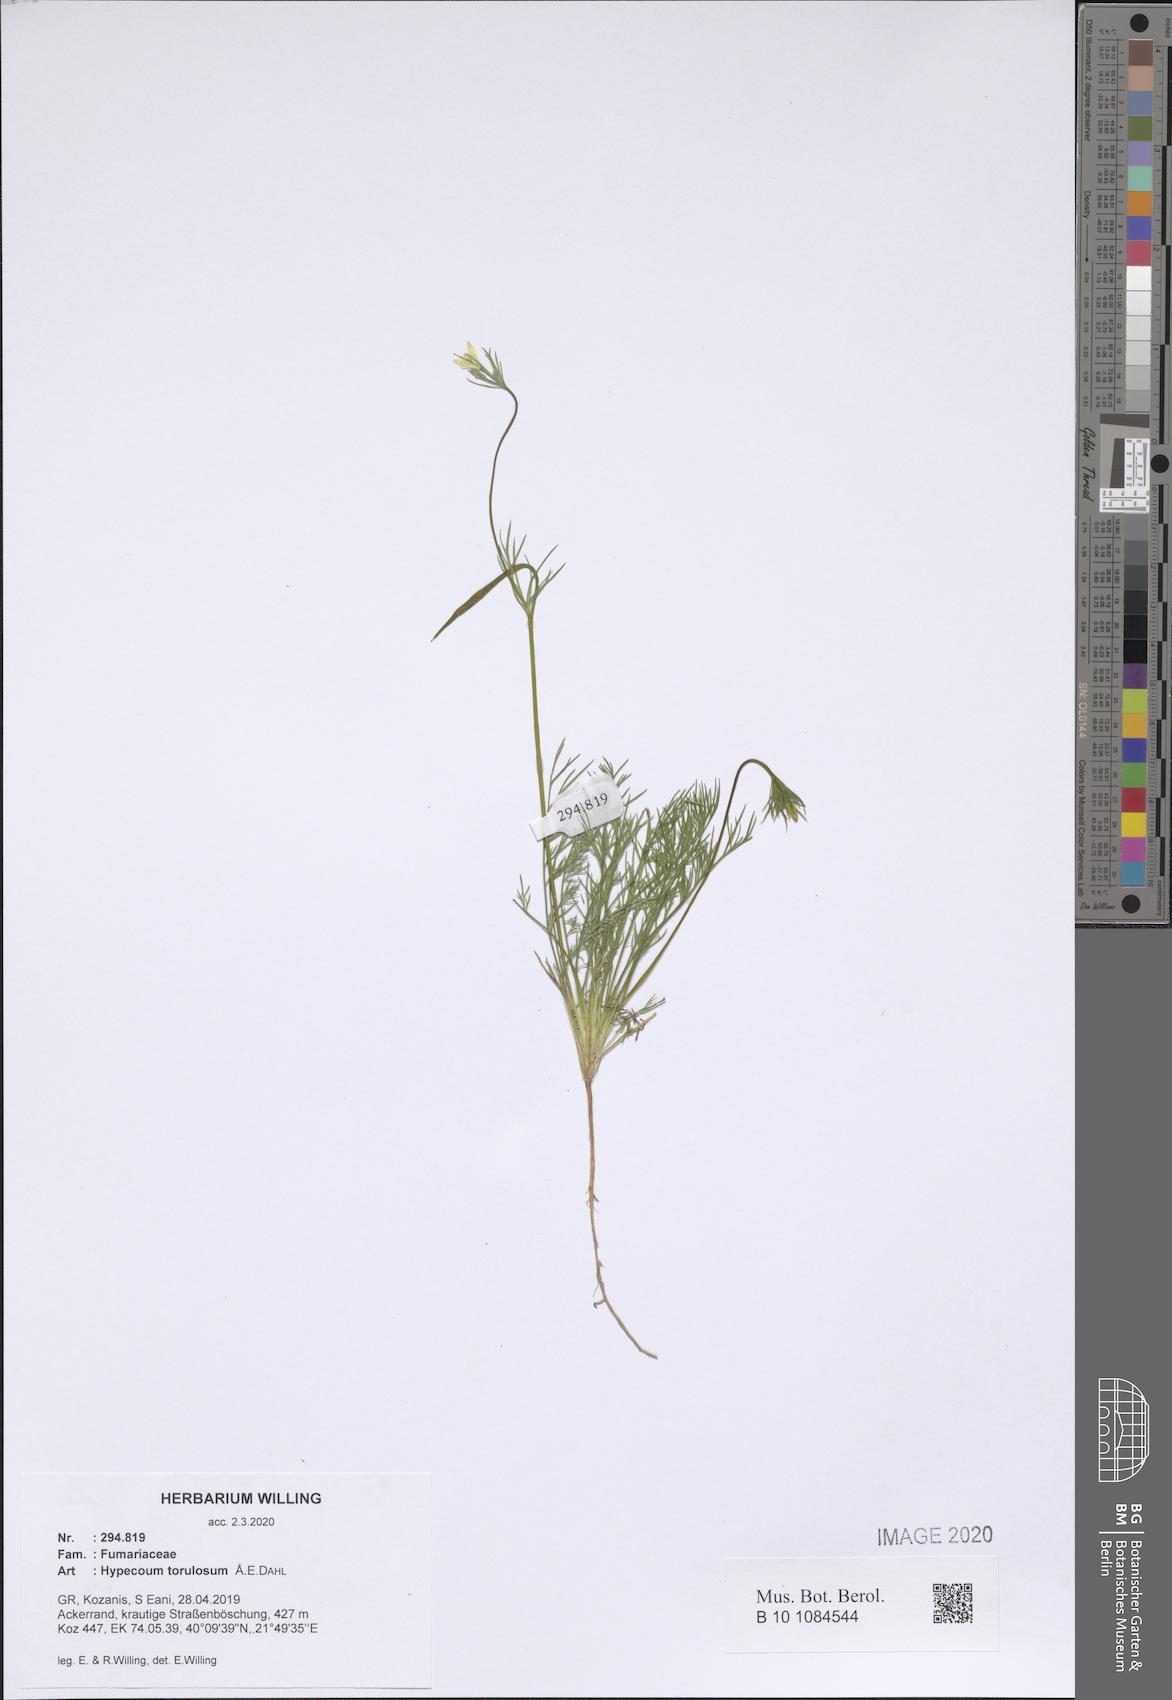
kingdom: Plantae
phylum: Tracheophyta
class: Magnoliopsida
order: Ranunculales
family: Papaveraceae
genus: Hypecoum
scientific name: Hypecoum torulosum
